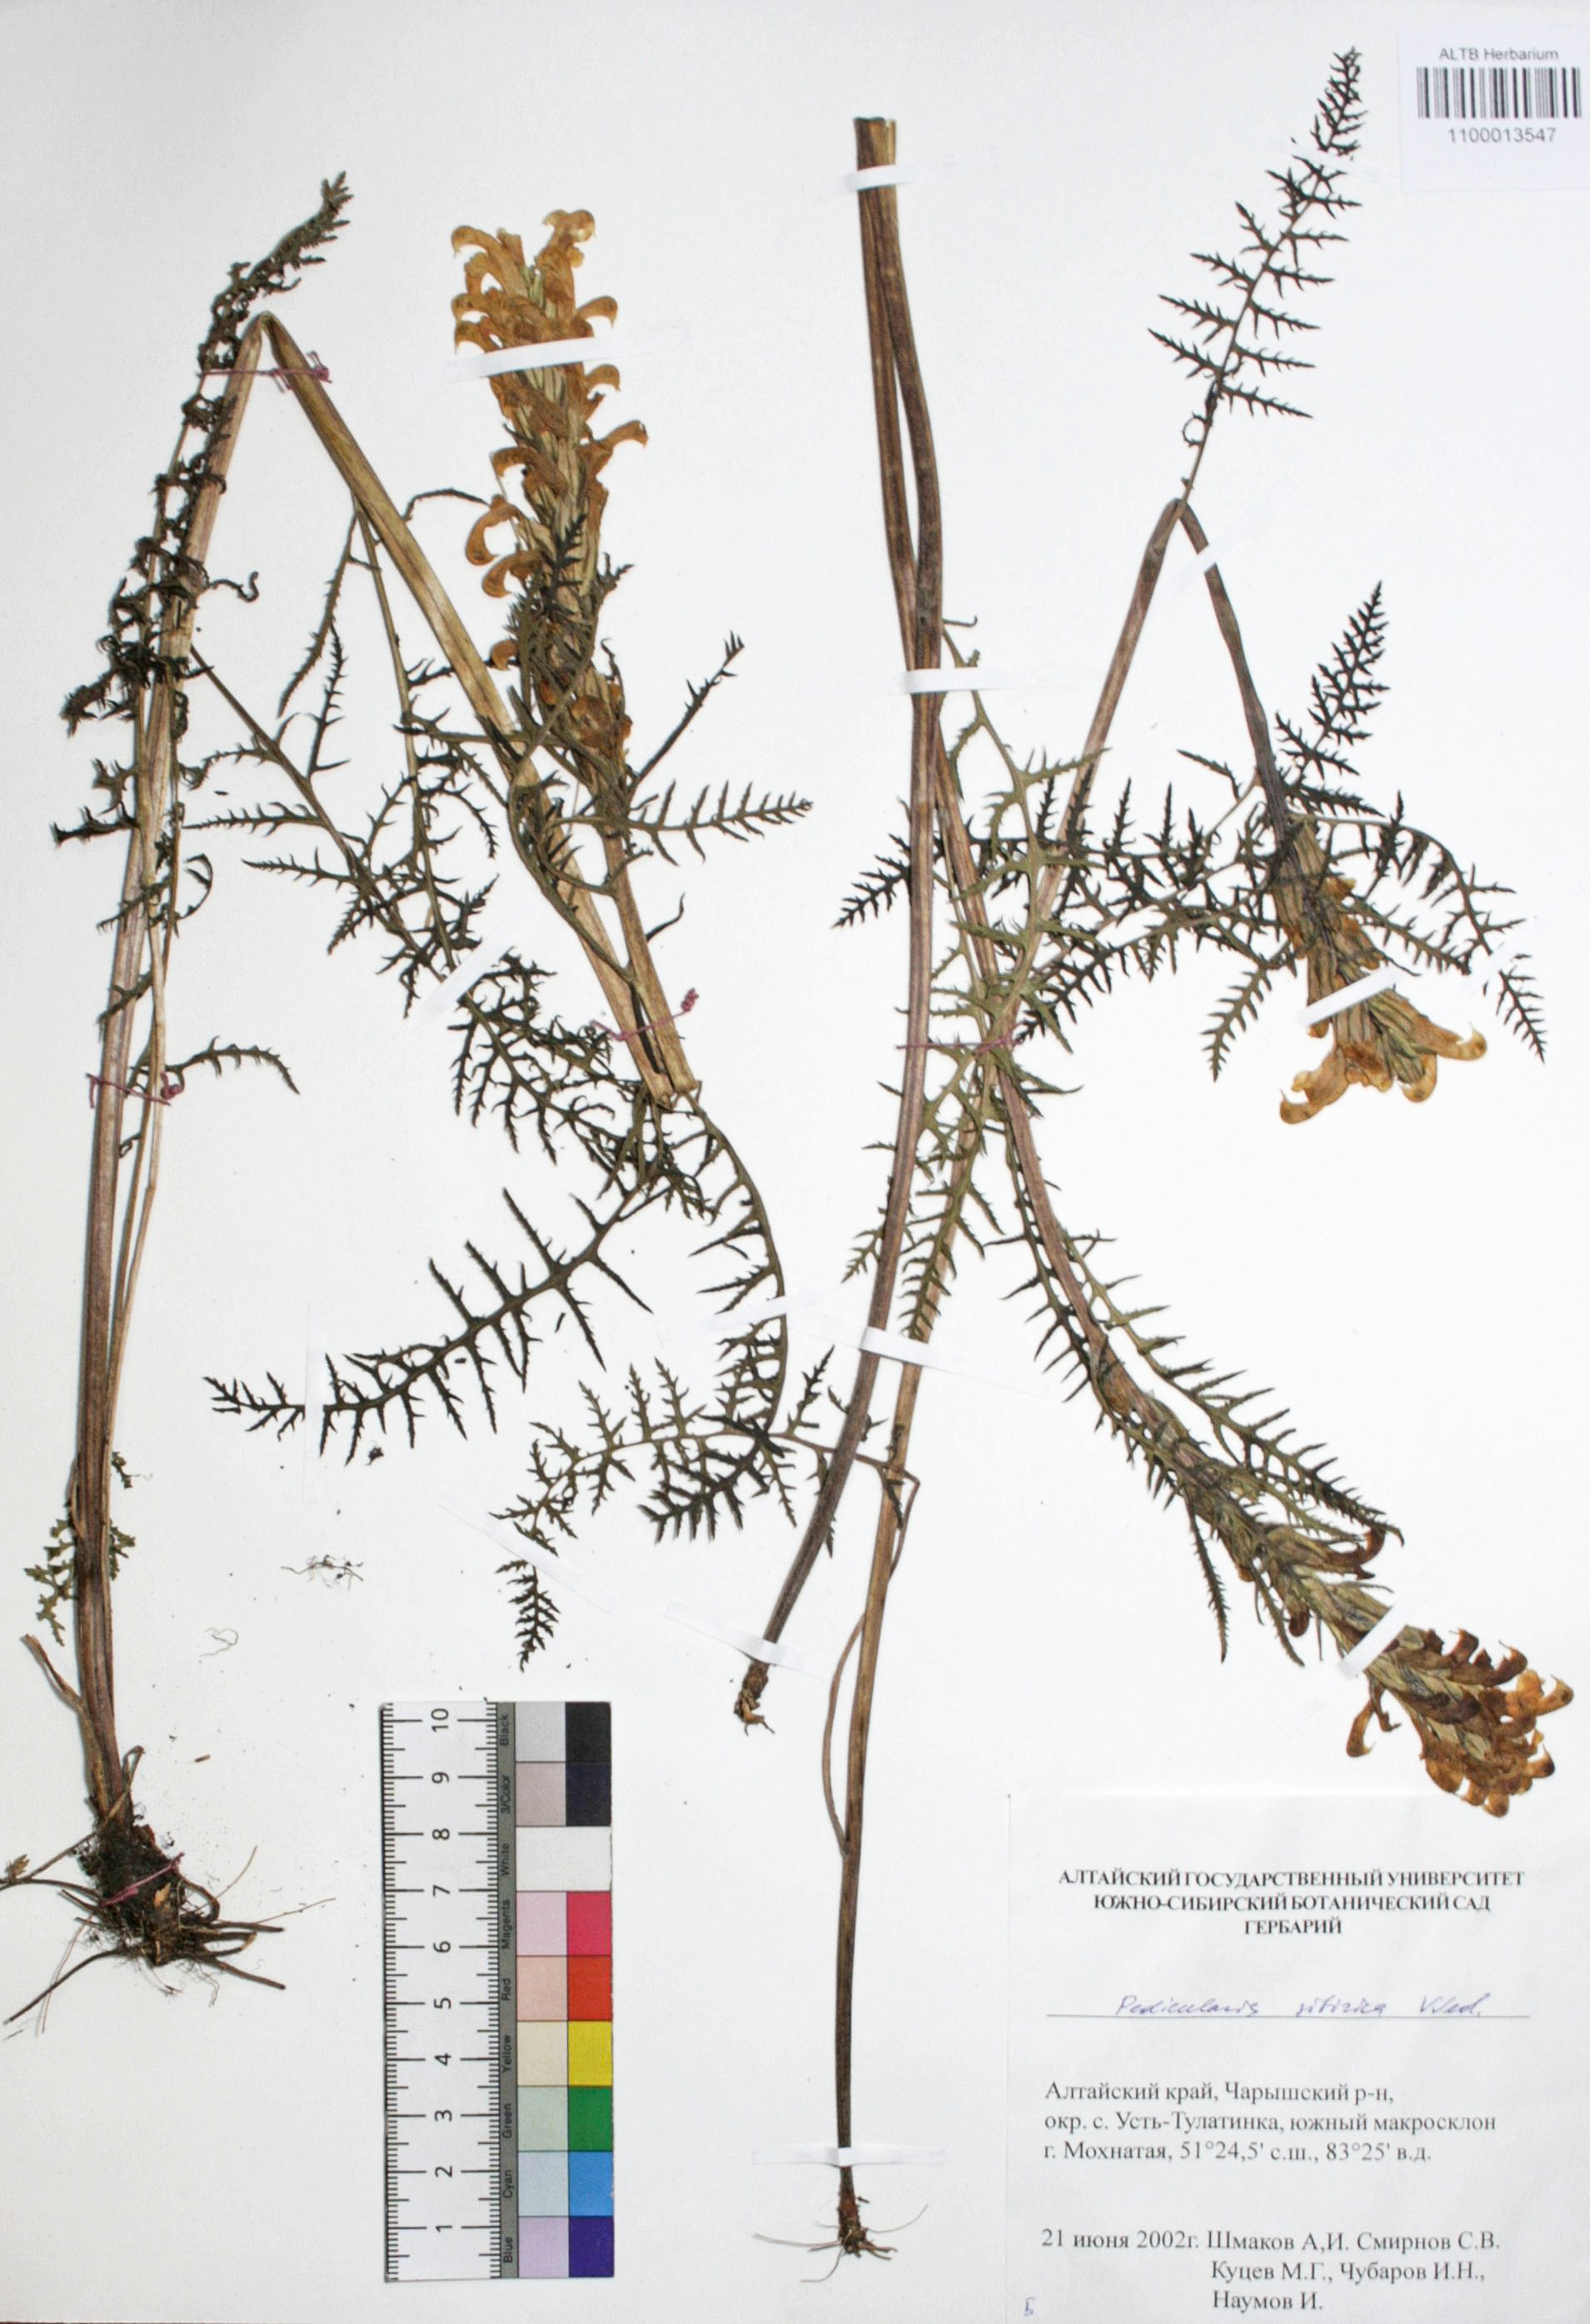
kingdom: Plantae
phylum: Tracheophyta
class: Magnoliopsida
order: Lamiales
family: Orobanchaceae
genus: Pedicularis
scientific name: Pedicularis sibirica
